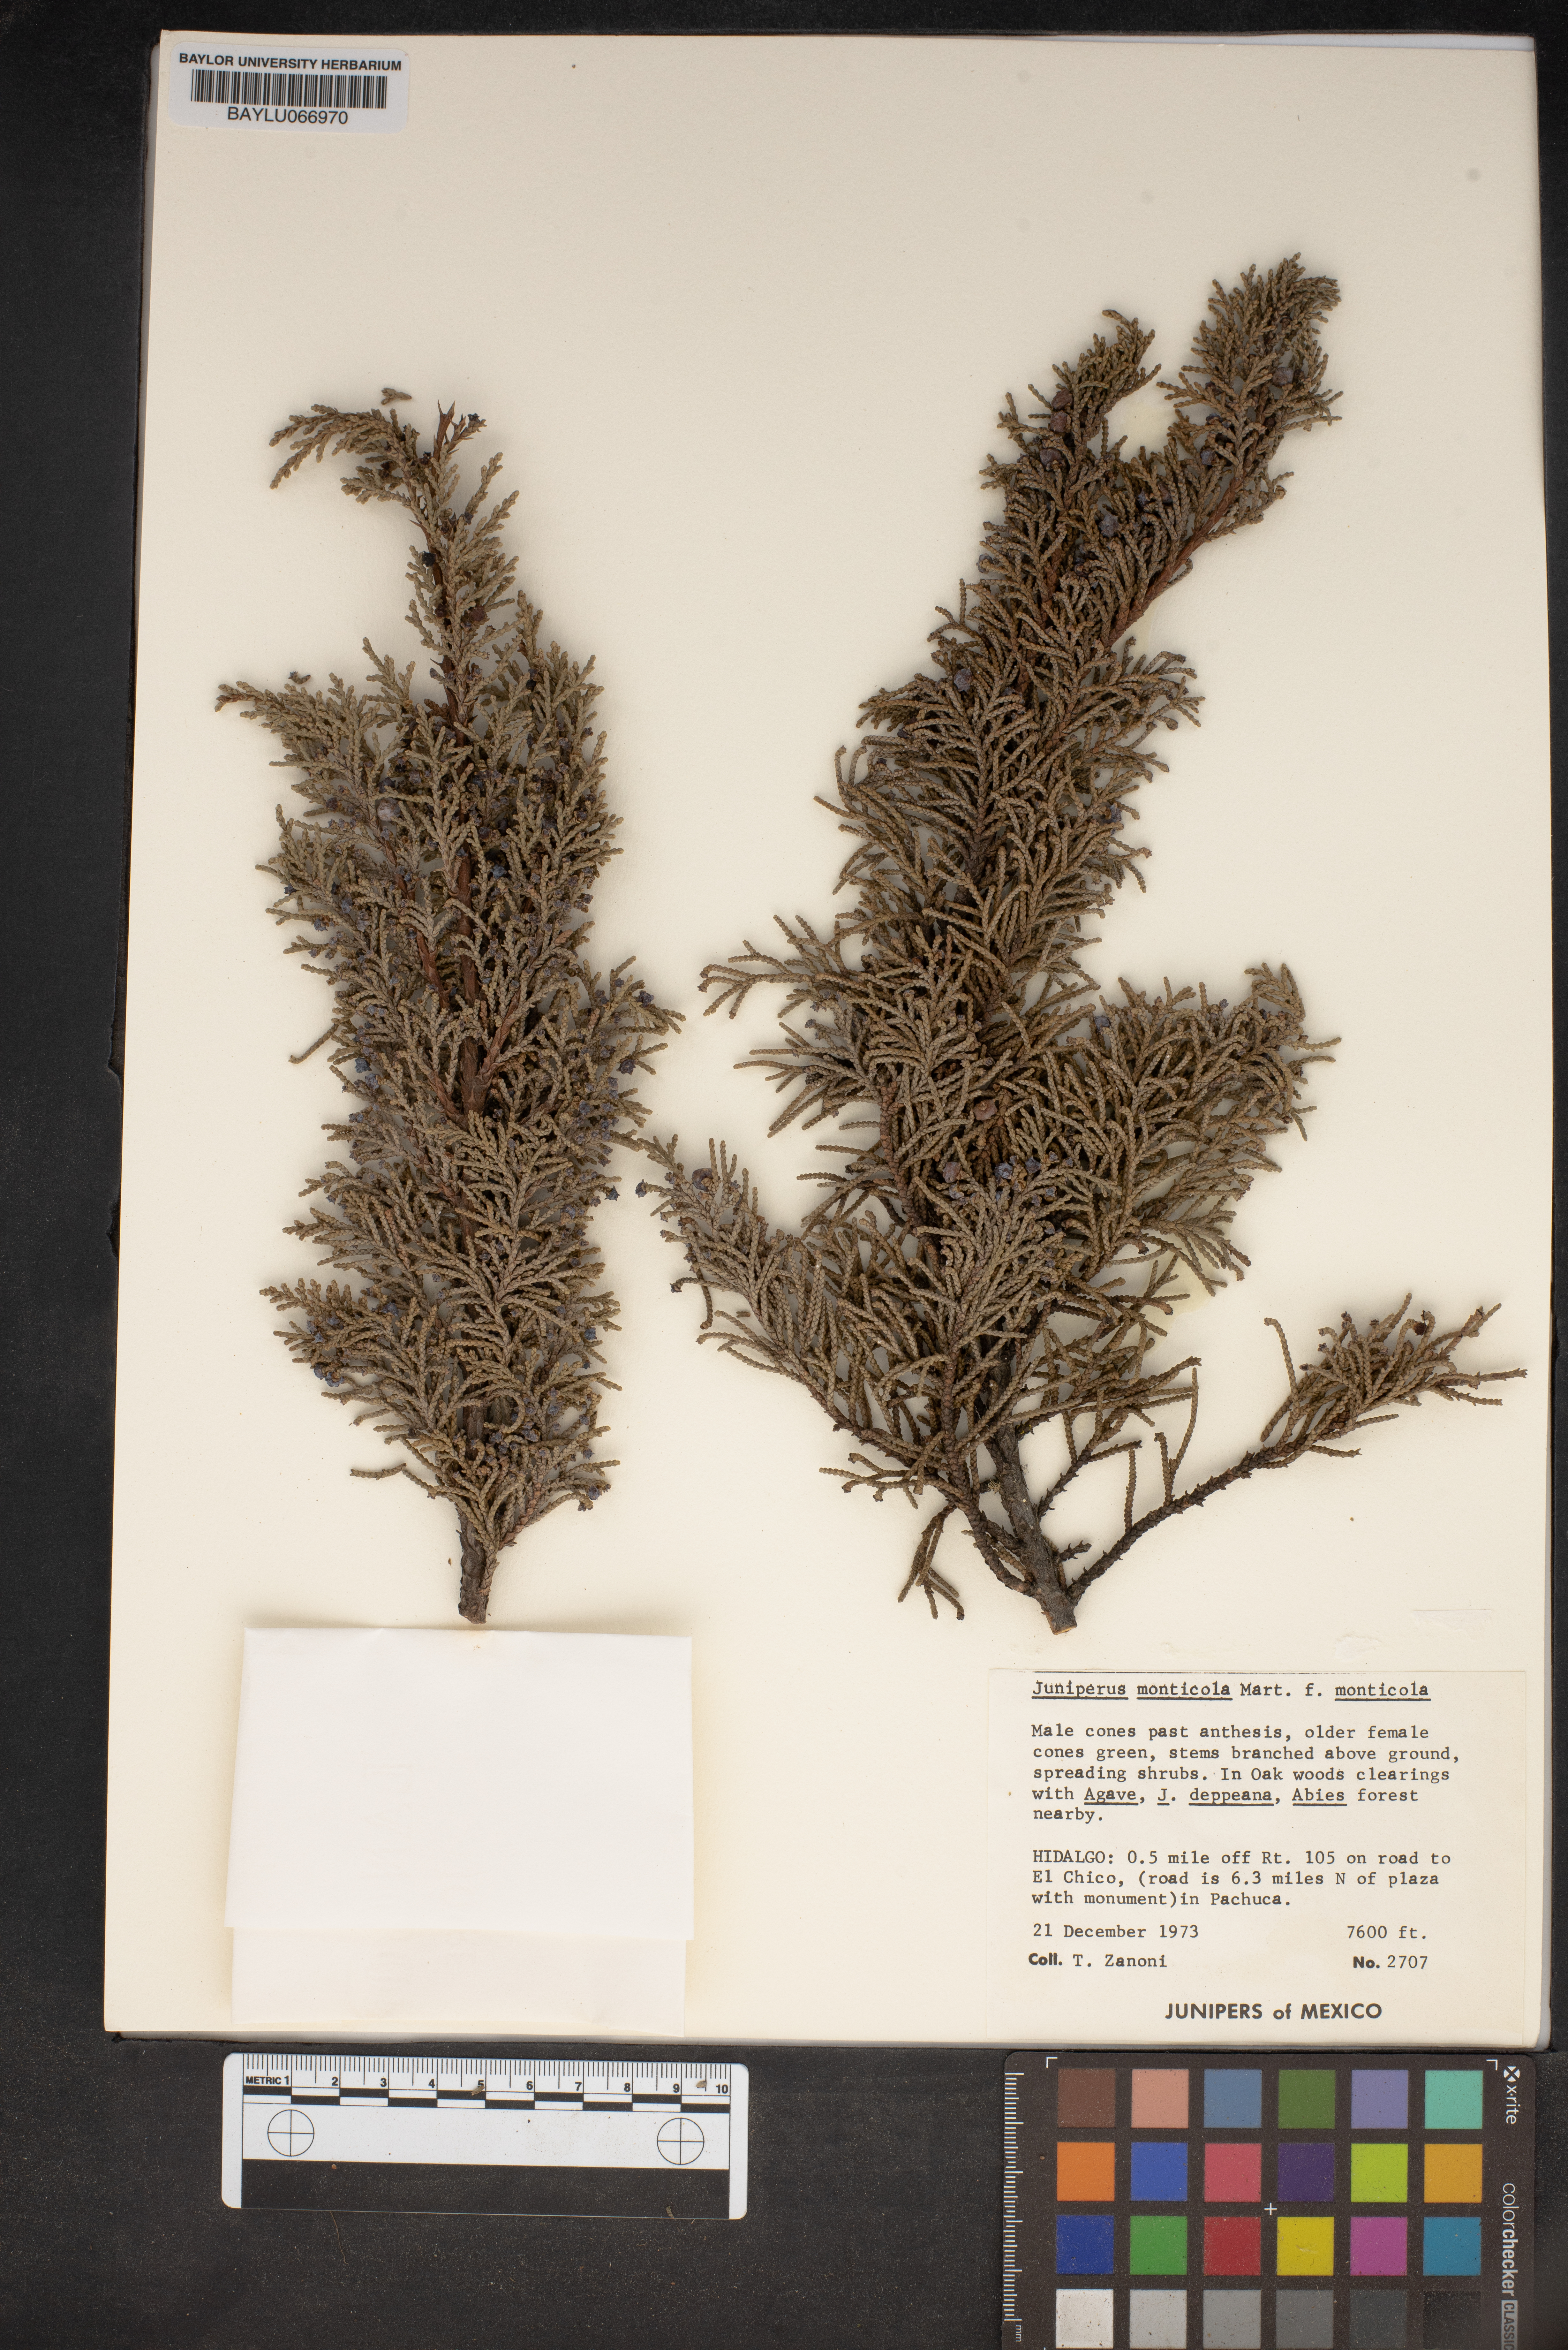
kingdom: Plantae
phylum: Tracheophyta
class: Pinopsida
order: Pinales
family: Cupressaceae
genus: Juniperus
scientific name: Juniperus monticola
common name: Mexican juniper
